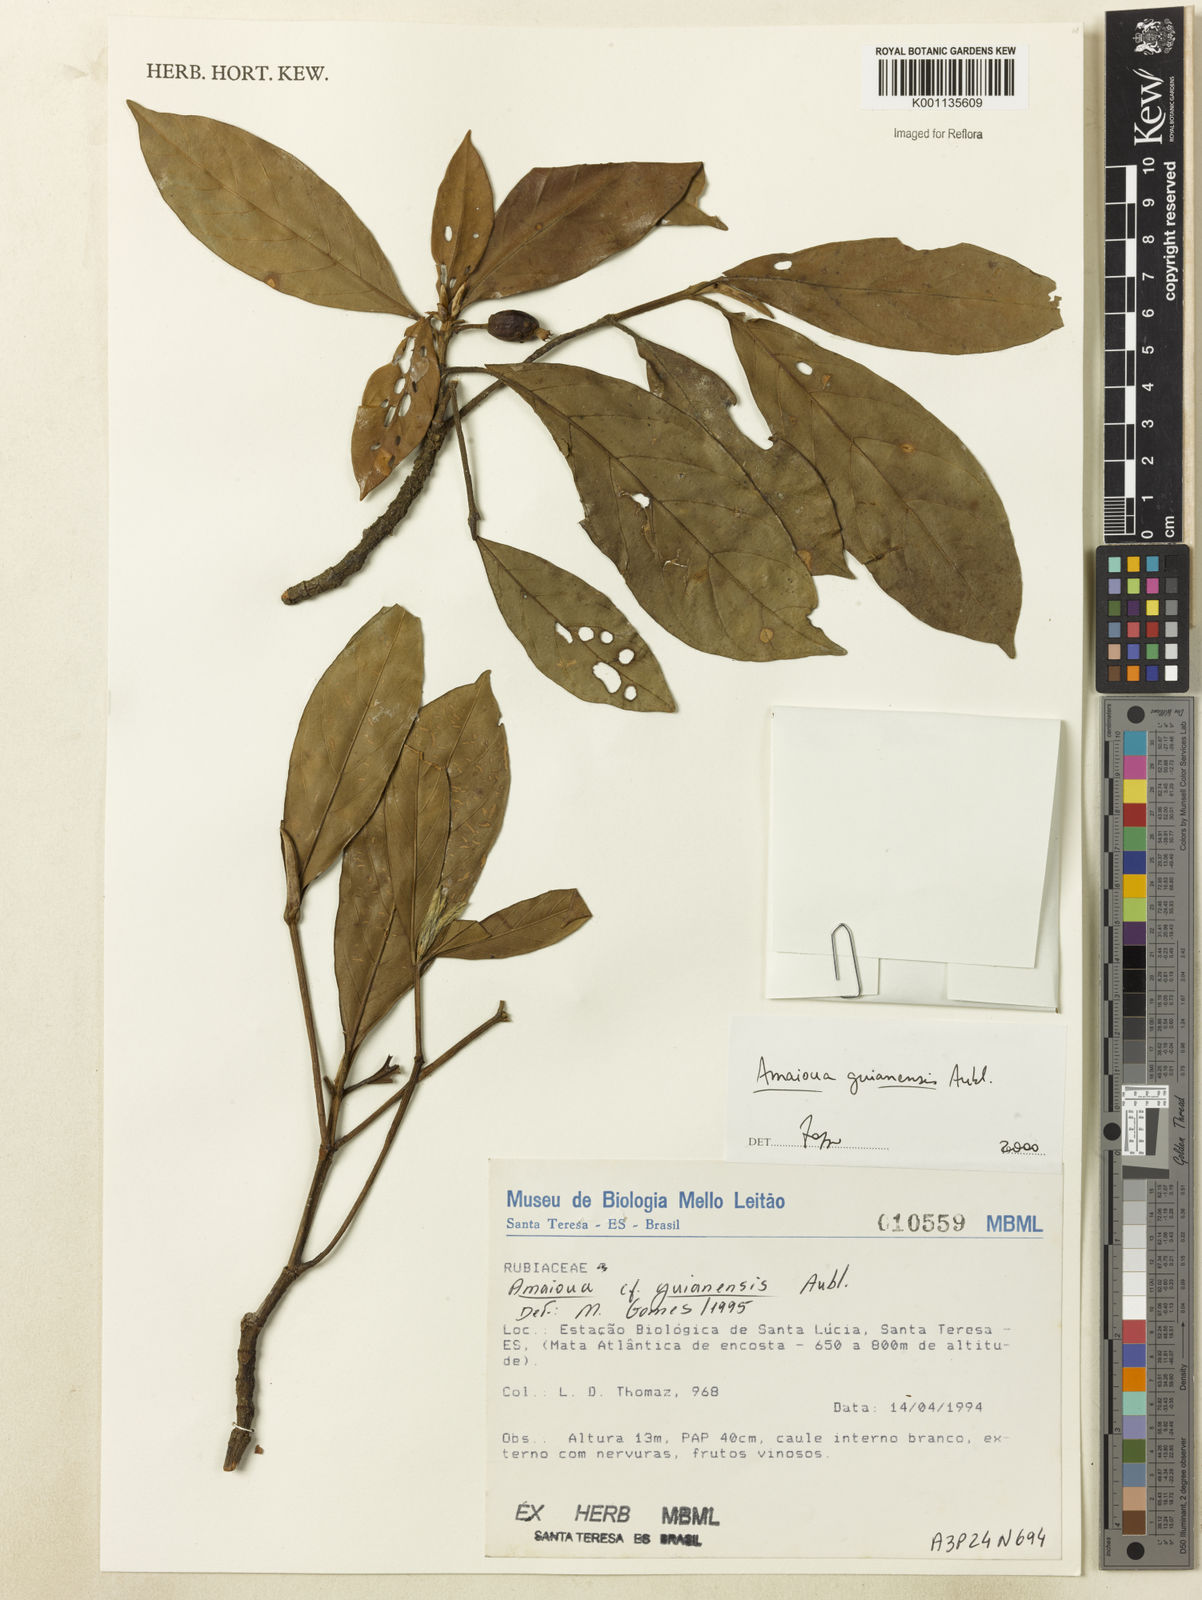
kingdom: Plantae
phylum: Tracheophyta
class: Magnoliopsida
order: Gentianales
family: Rubiaceae
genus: Amaioua
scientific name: Amaioua intermedia
